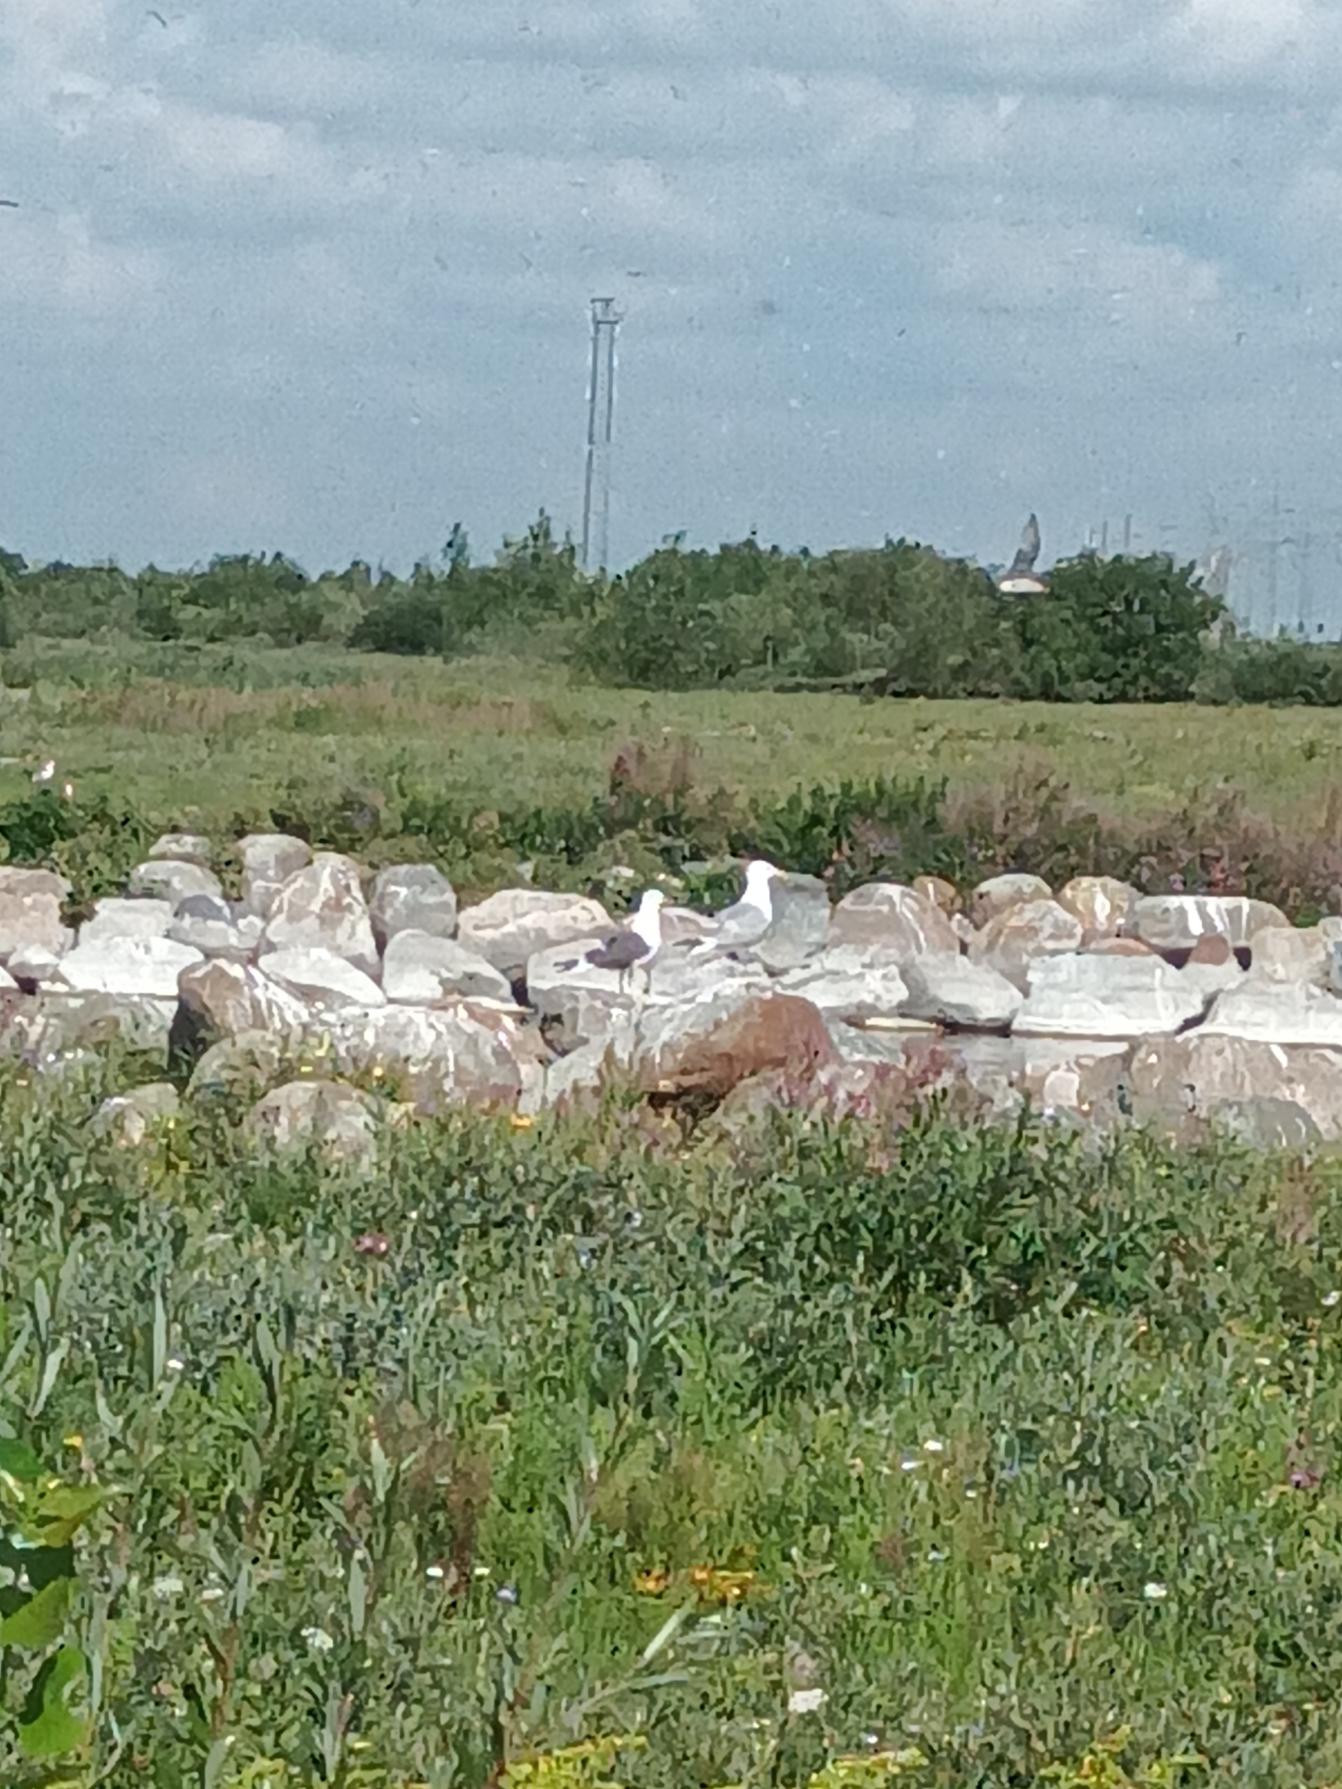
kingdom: Animalia
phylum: Chordata
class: Aves
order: Charadriiformes
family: Laridae
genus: Larus
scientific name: Larus fuscus
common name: Sildemåge
